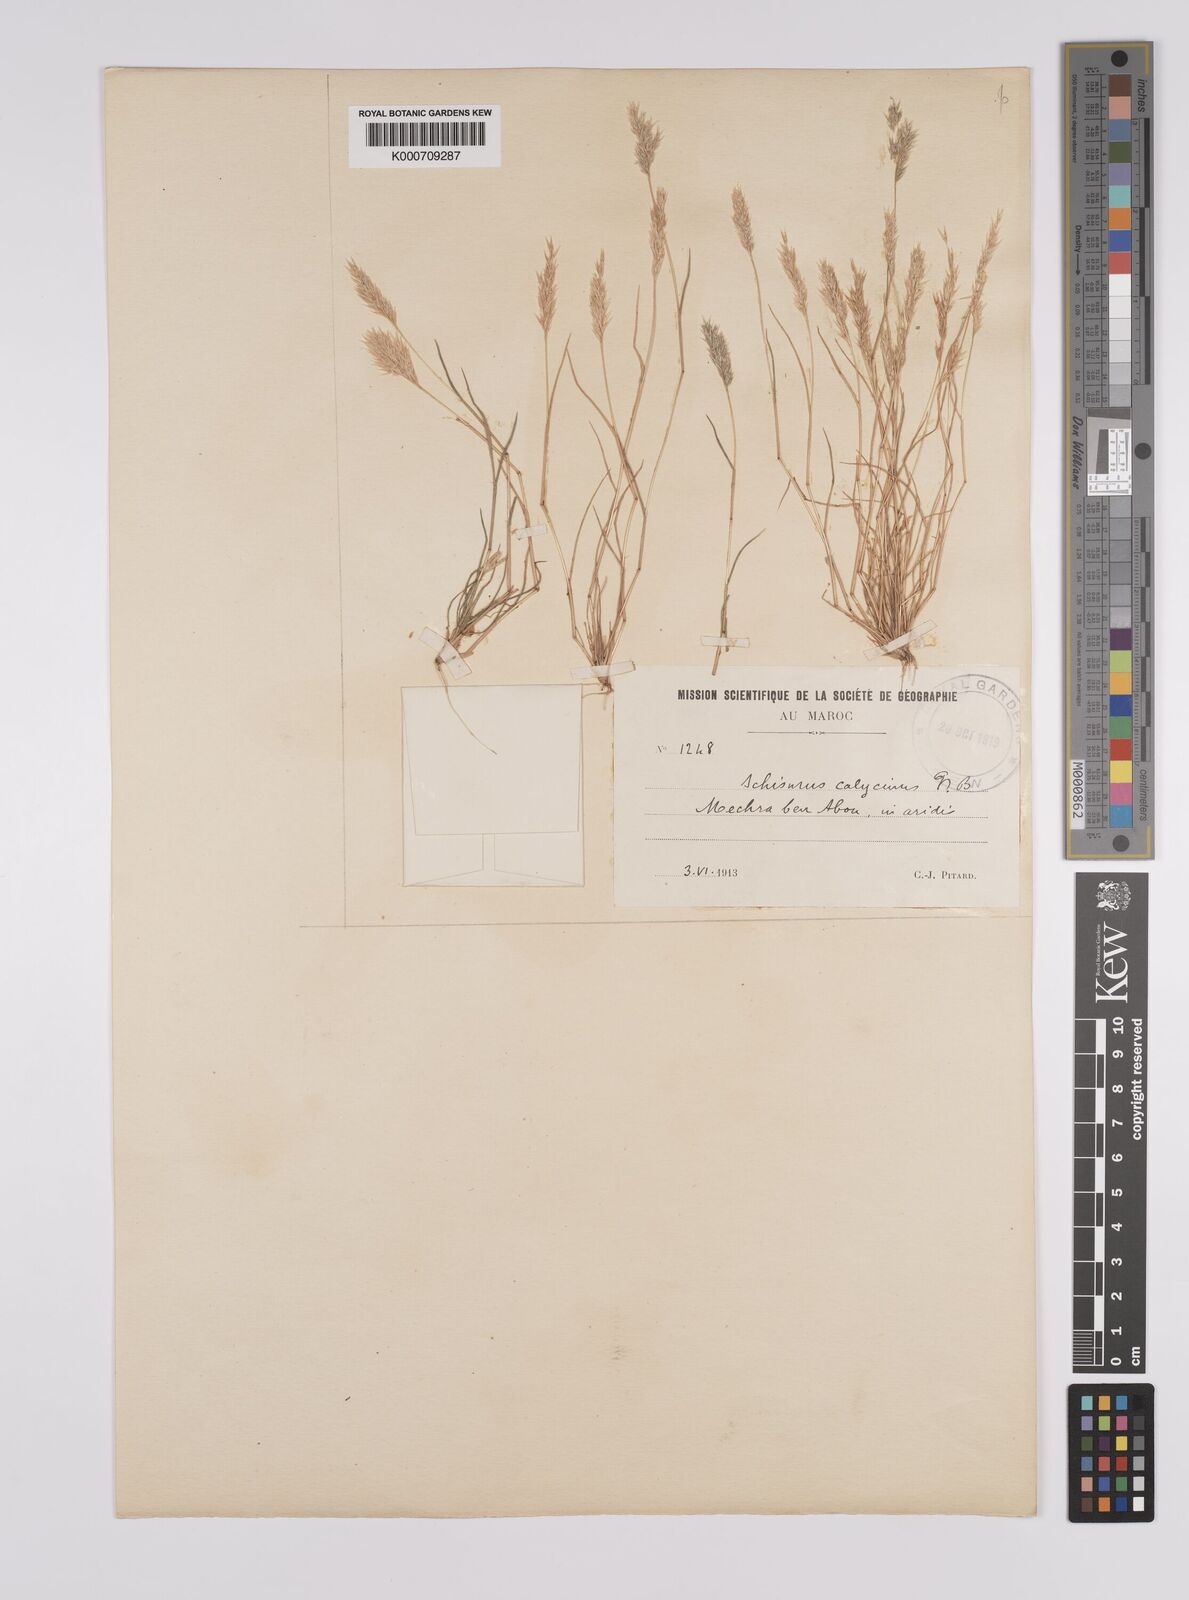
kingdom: Plantae
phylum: Tracheophyta
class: Liliopsida
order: Poales
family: Poaceae
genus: Schismus
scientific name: Schismus barbatus
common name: Kelch-grass
